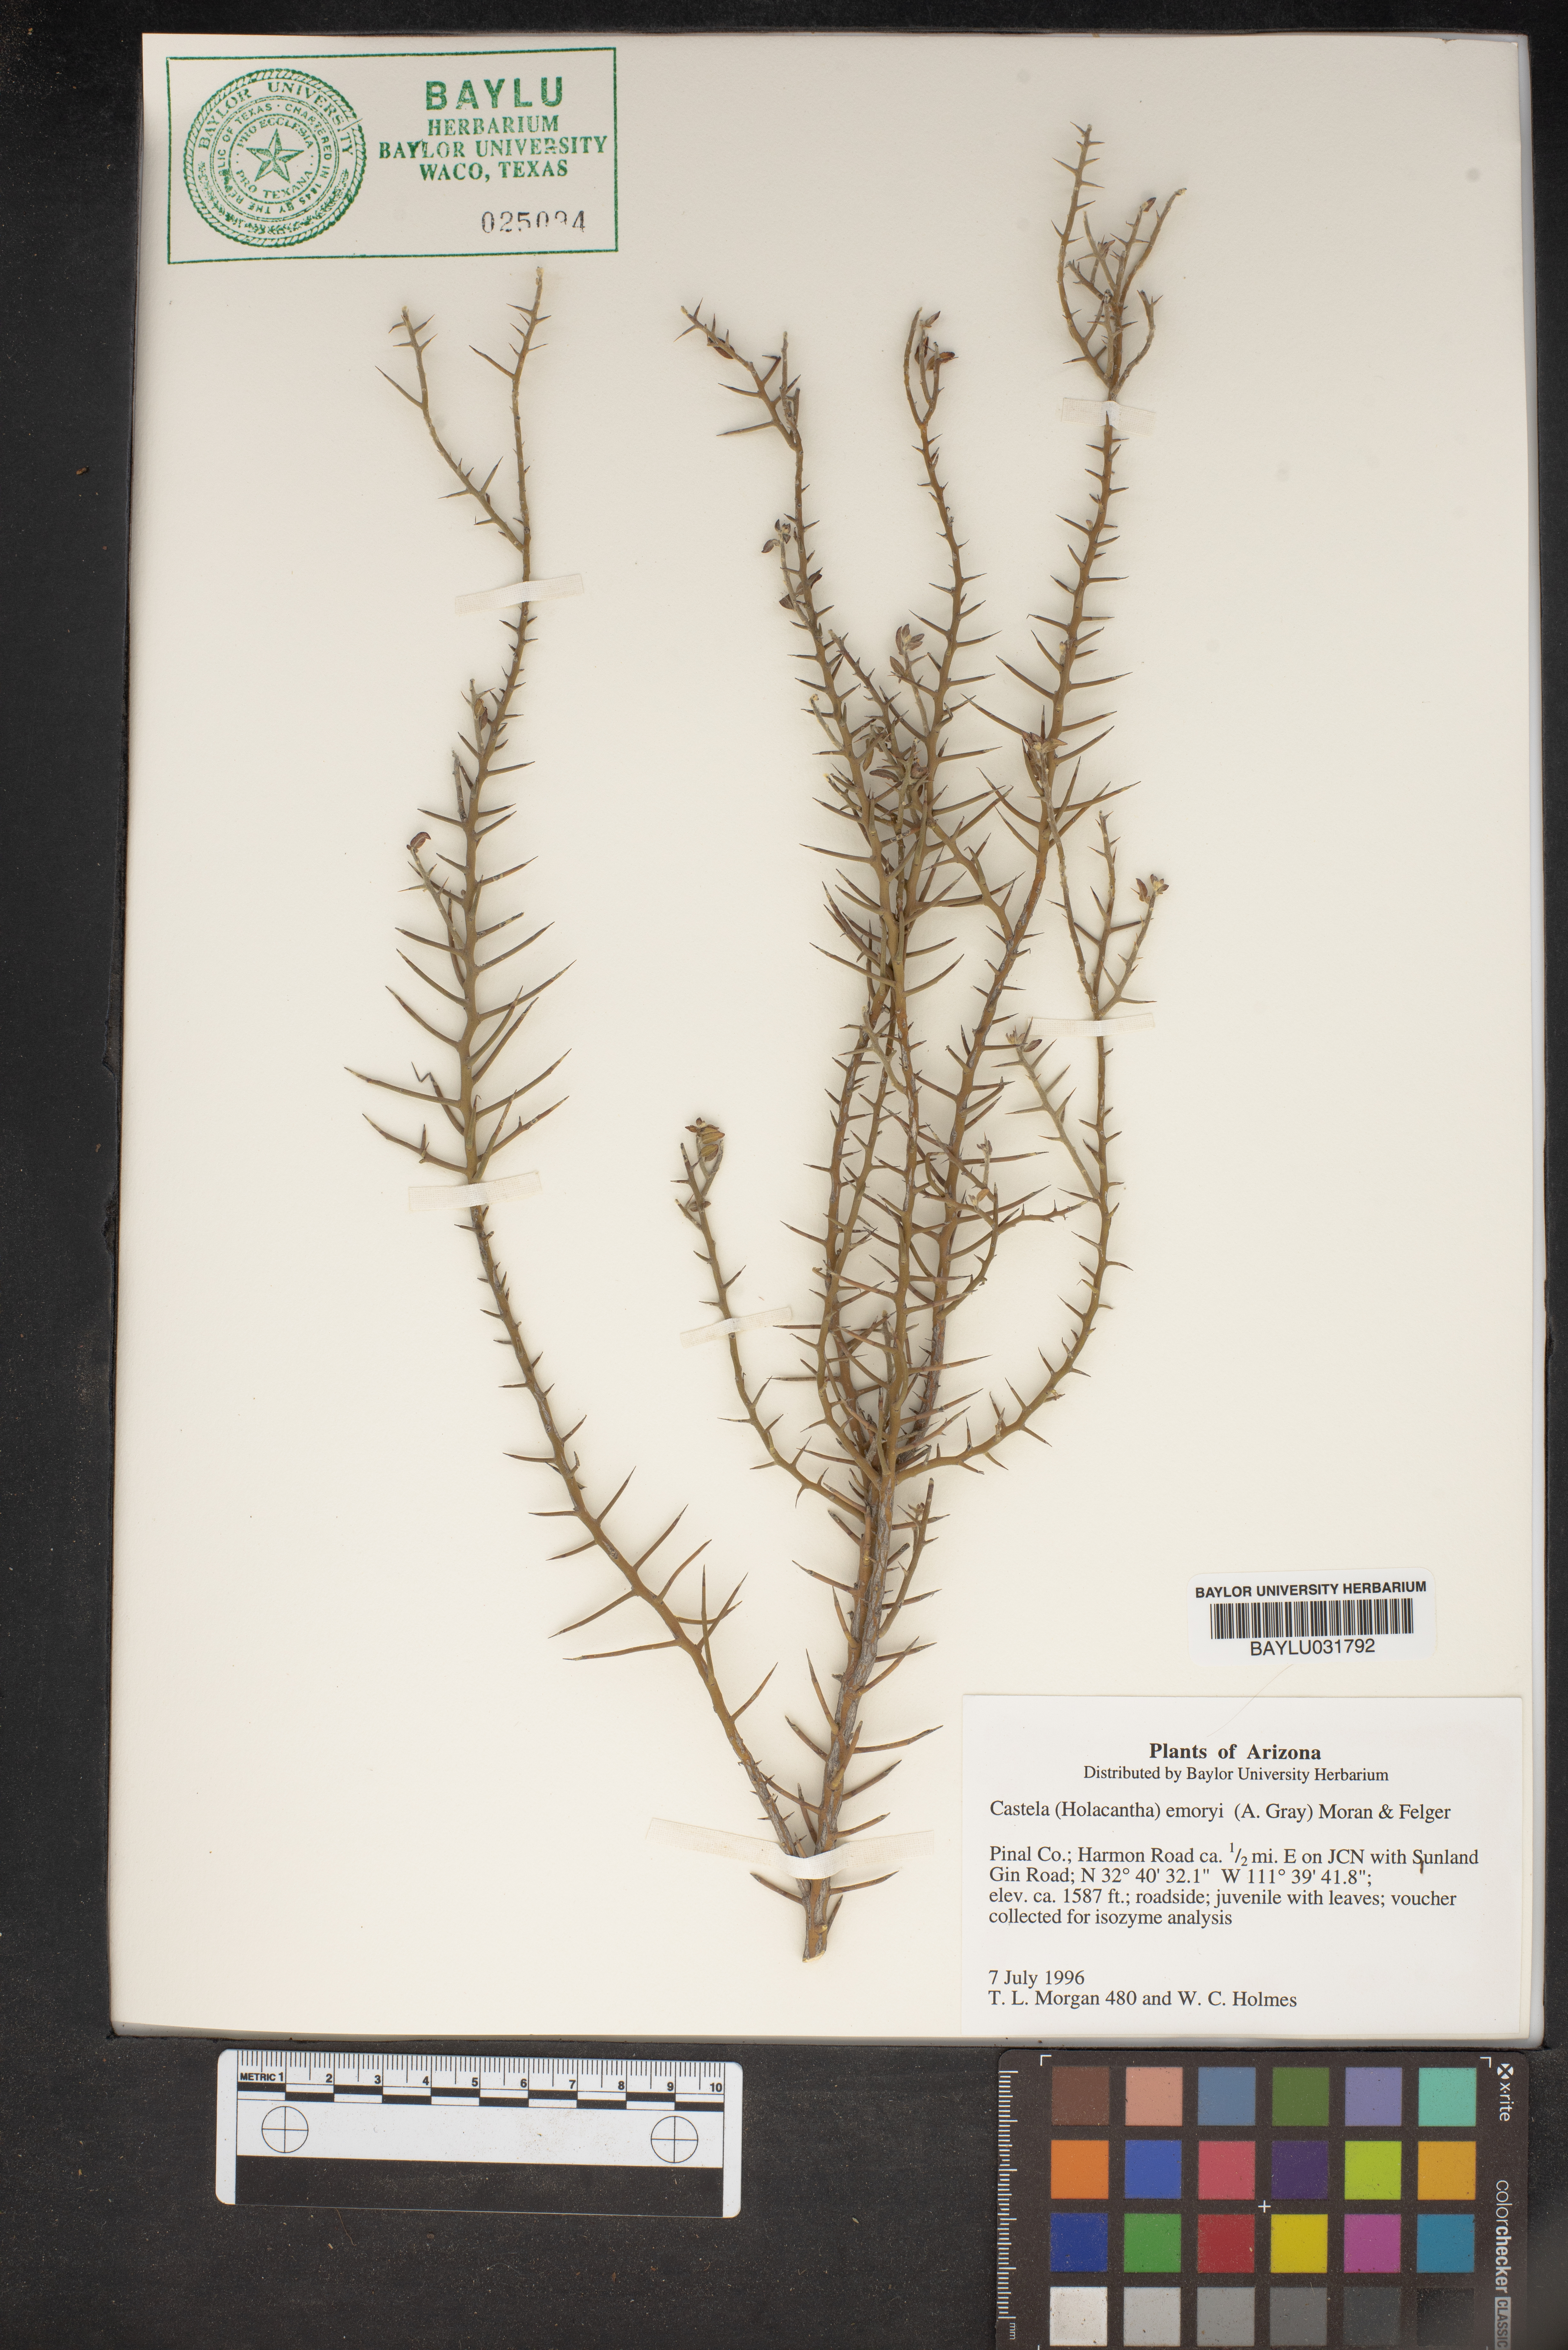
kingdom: Plantae
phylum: Tracheophyta
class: Magnoliopsida
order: Sapindales
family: Simaroubaceae
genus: Holacantha
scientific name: Holacantha emoryi
